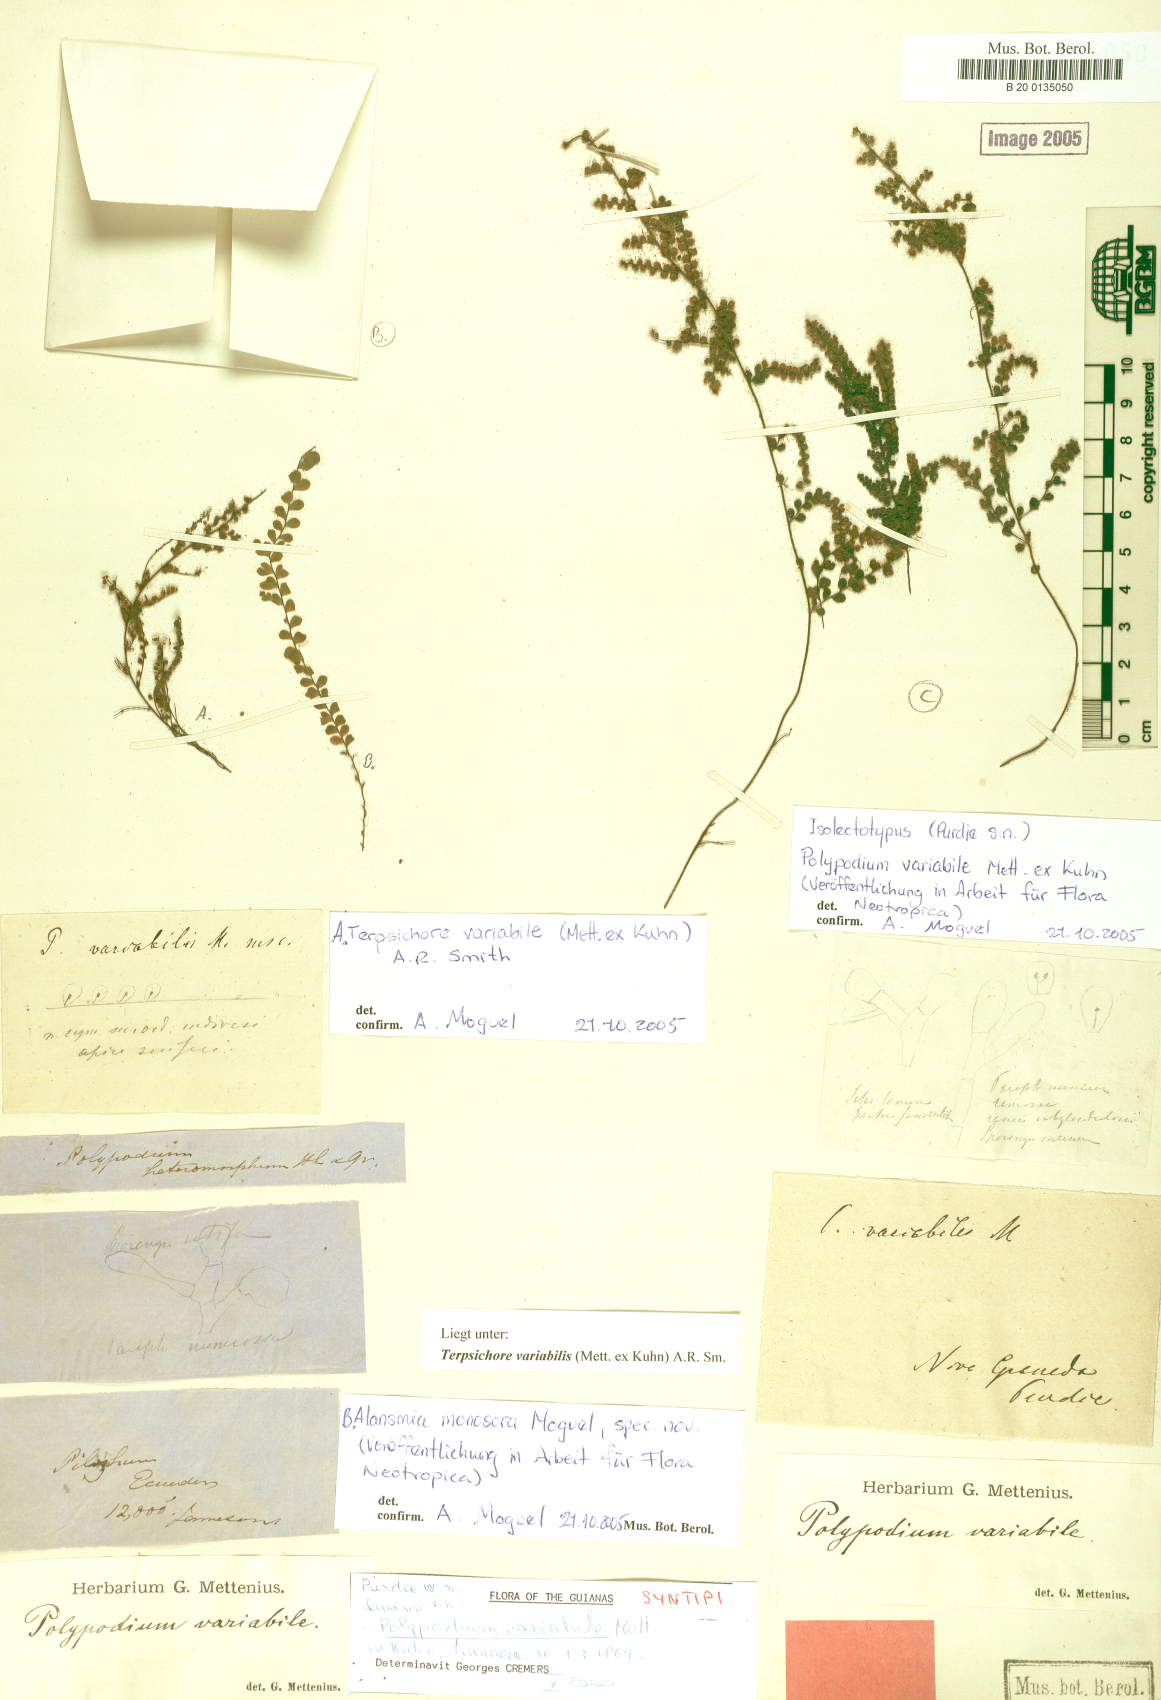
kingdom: Plantae
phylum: Tracheophyta
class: Polypodiopsida
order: Polypodiales
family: Polypodiaceae
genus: Alansmia
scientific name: Alansmia variabilis
